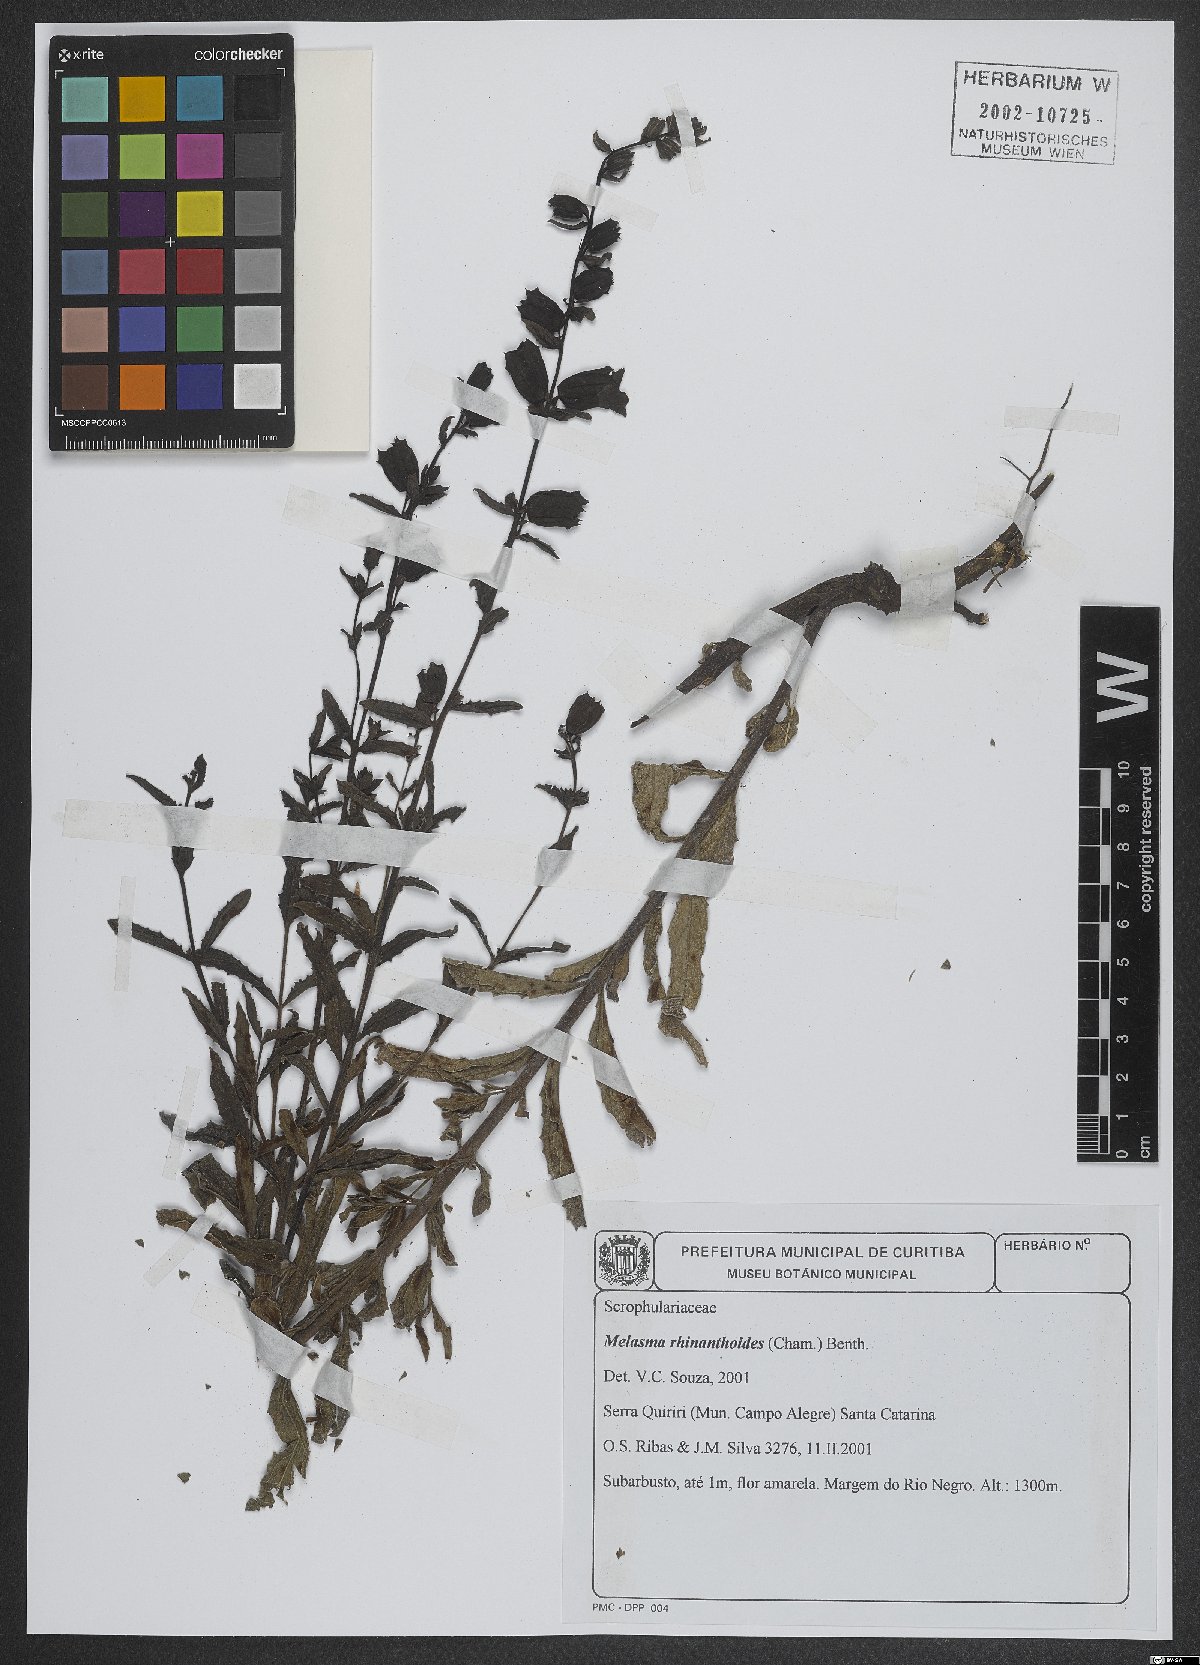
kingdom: Plantae
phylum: Tracheophyta
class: Magnoliopsida
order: Lamiales
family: Orobanchaceae
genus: Melasma
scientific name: Melasma rhinanthoides
